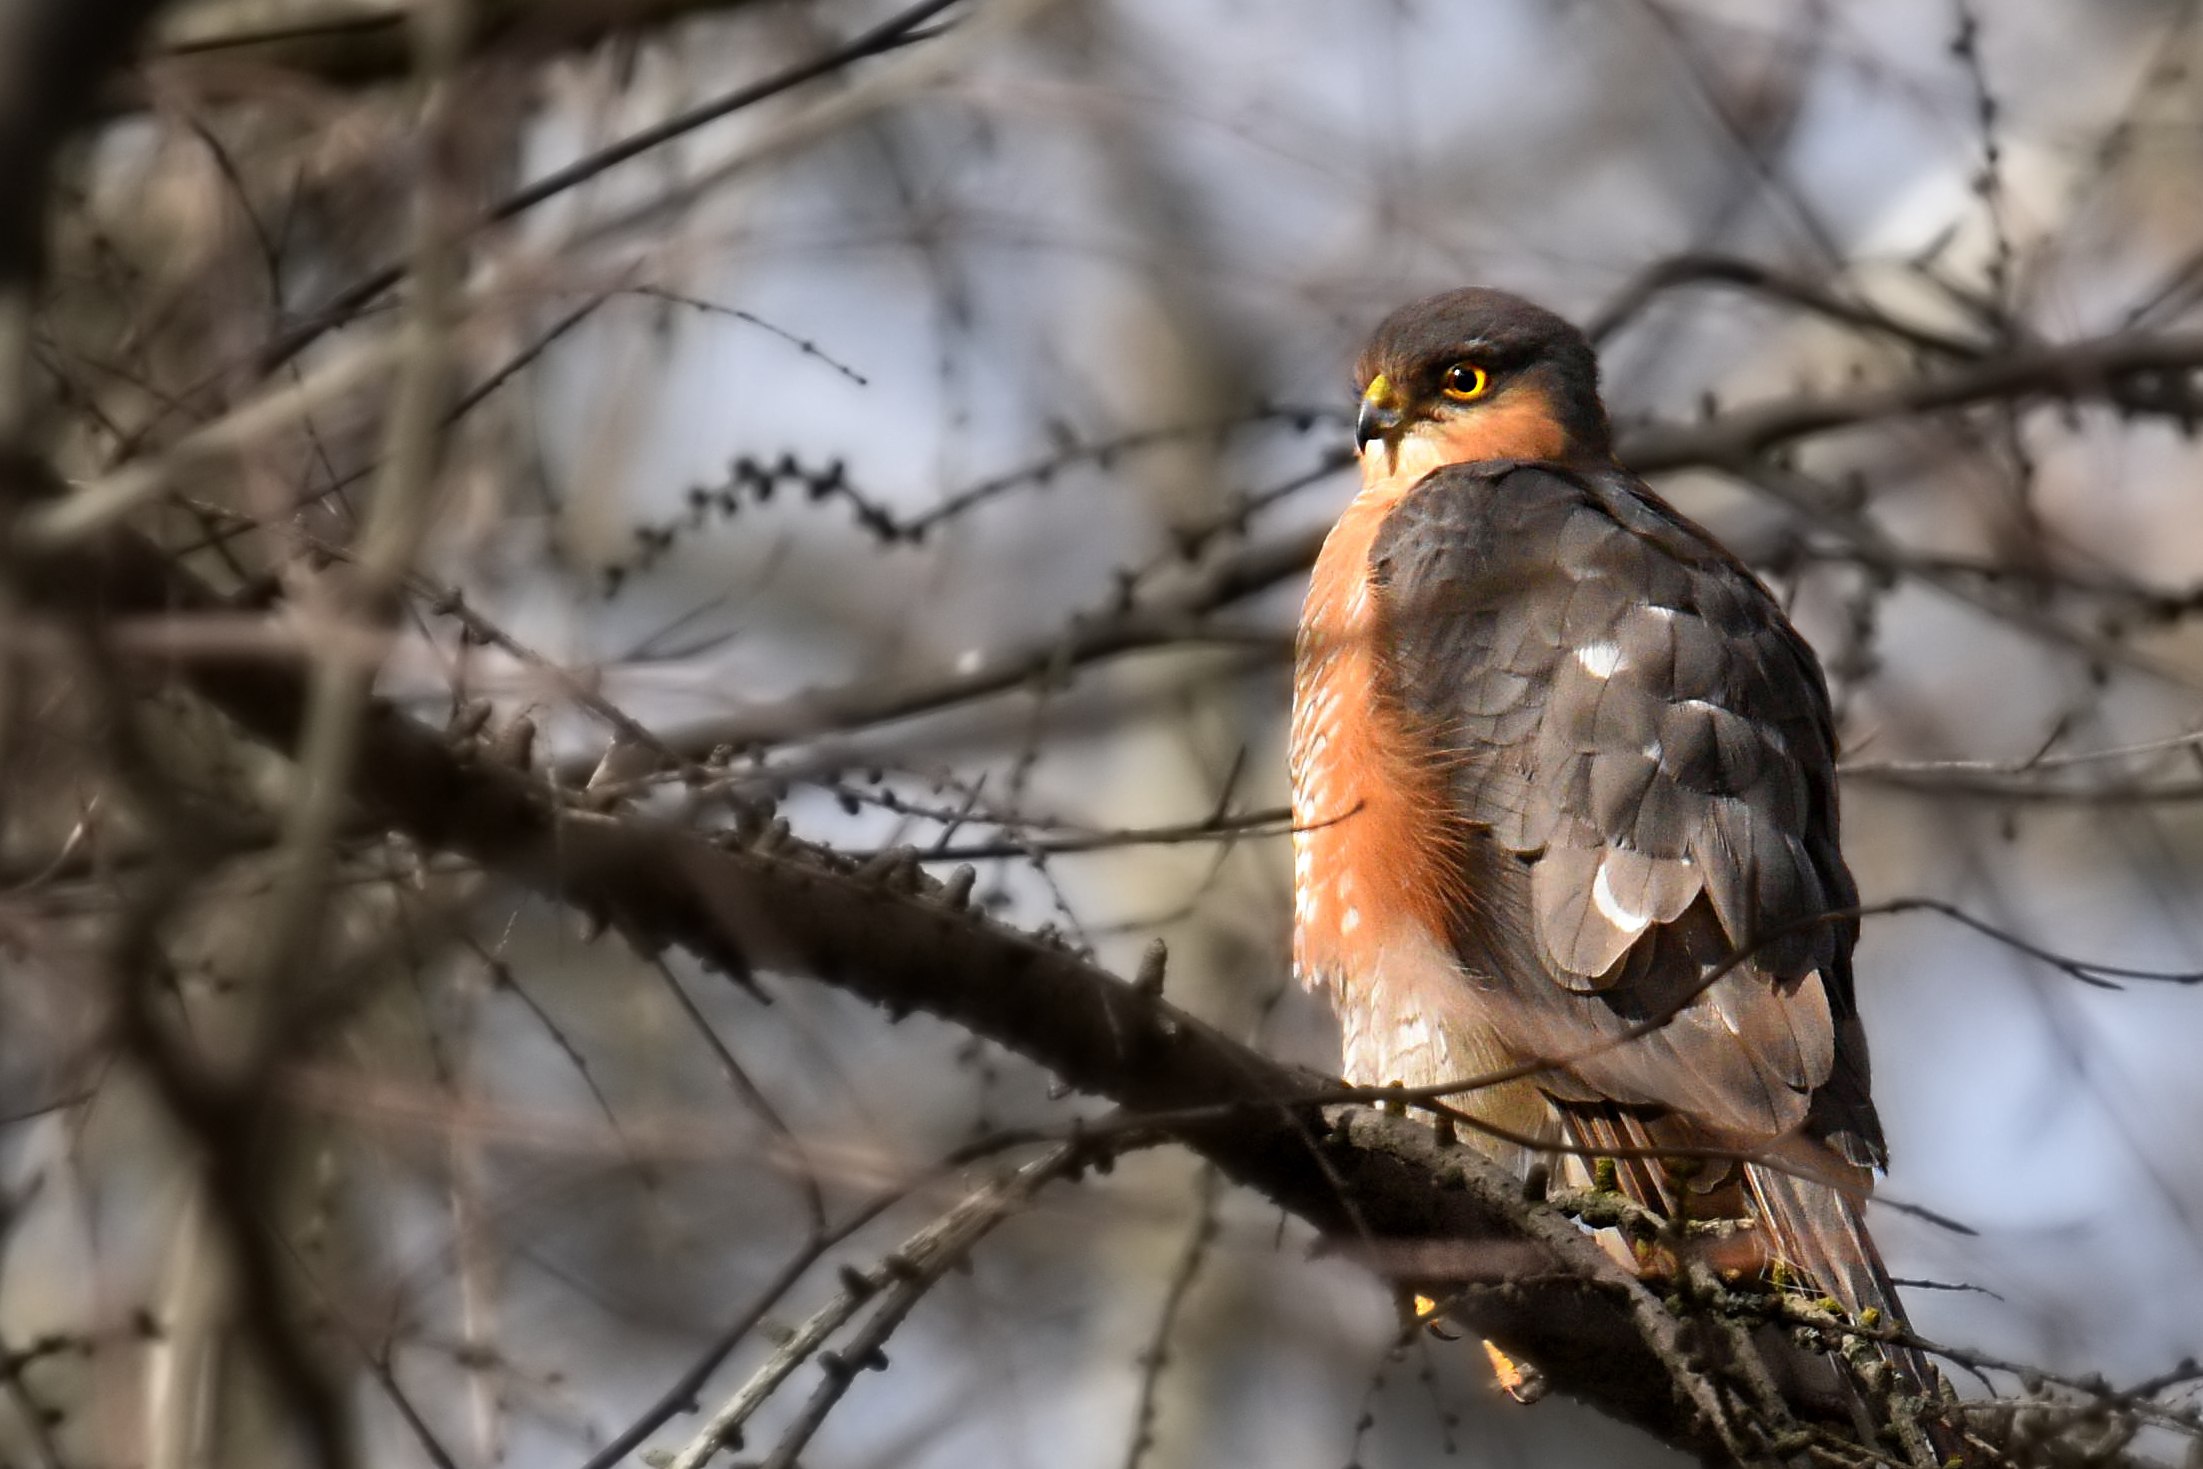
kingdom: Animalia
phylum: Chordata
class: Aves
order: Accipitriformes
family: Accipitridae
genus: Accipiter
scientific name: Accipiter nisus
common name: Spurvehøg
